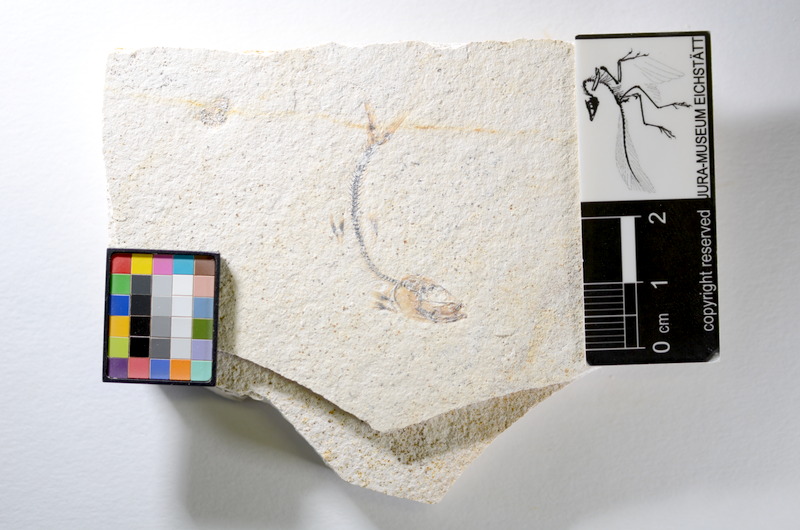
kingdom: Animalia
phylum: Chordata
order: Salmoniformes
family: Orthogonikleithridae
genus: Orthogonikleithrus
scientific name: Orthogonikleithrus hoelli
